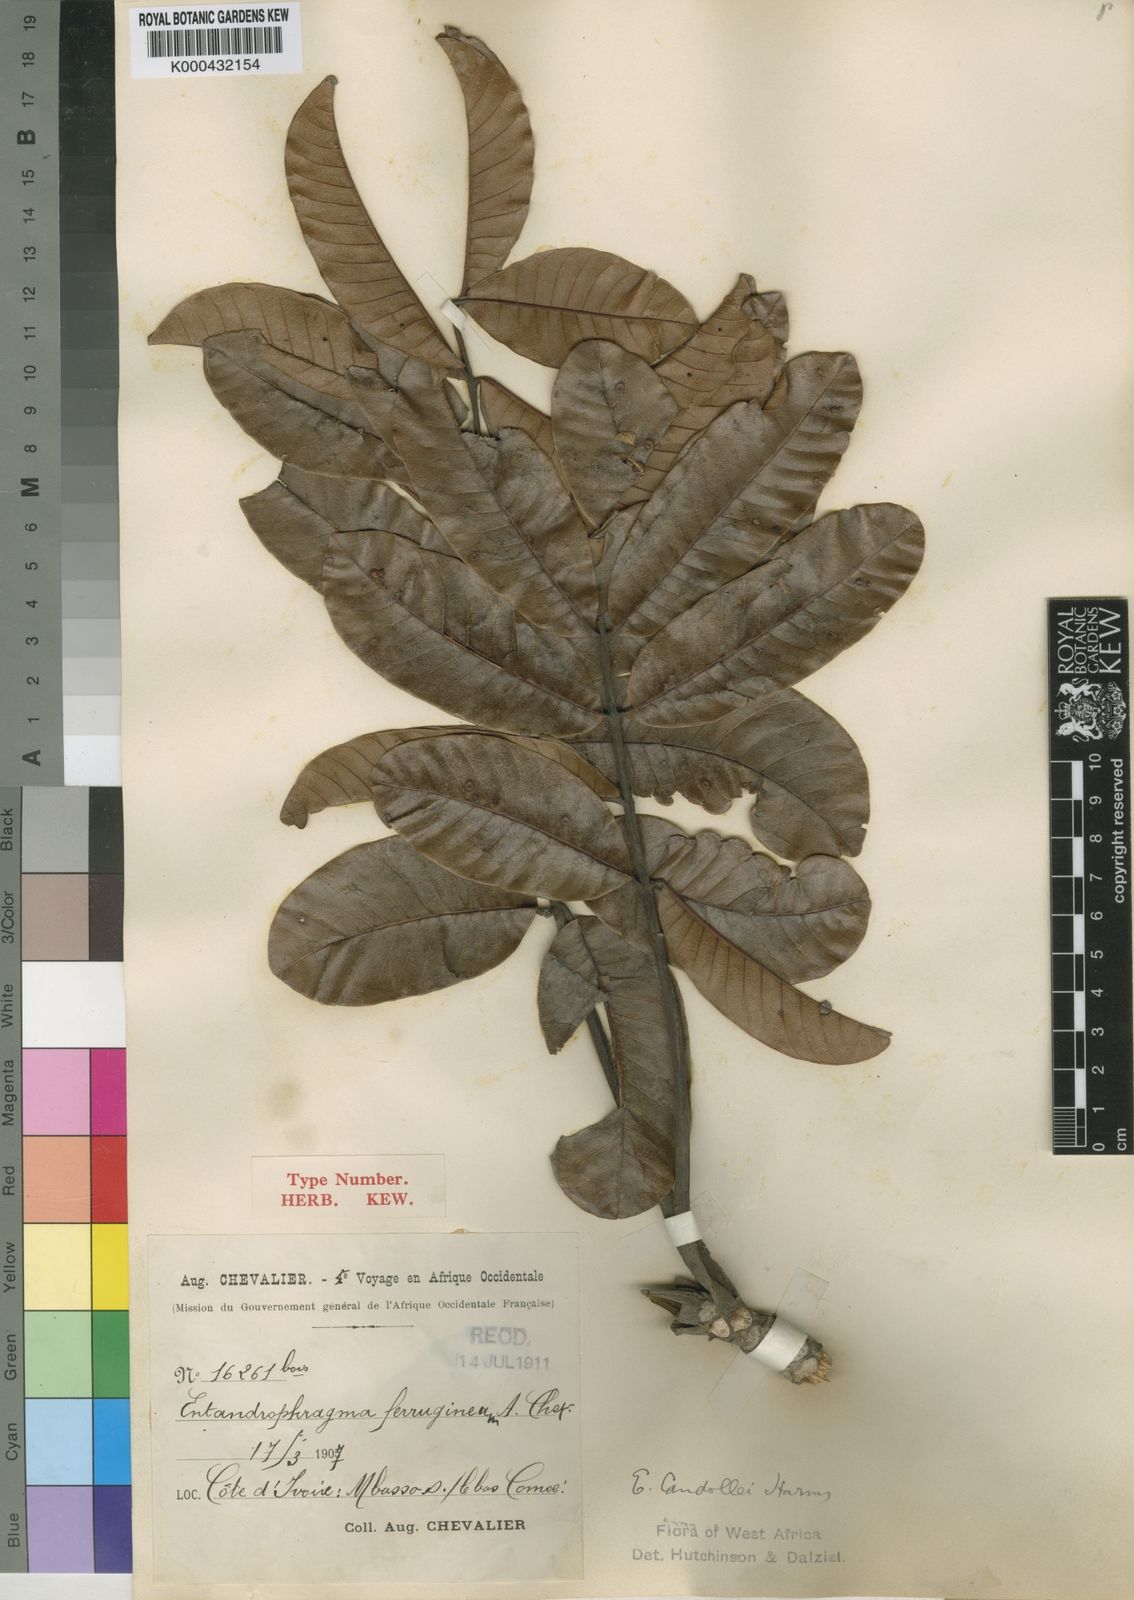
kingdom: Plantae
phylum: Tracheophyta
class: Magnoliopsida
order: Sapindales
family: Meliaceae
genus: Entandrophragma
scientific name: Entandrophragma candollei
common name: Cedar kokoti
